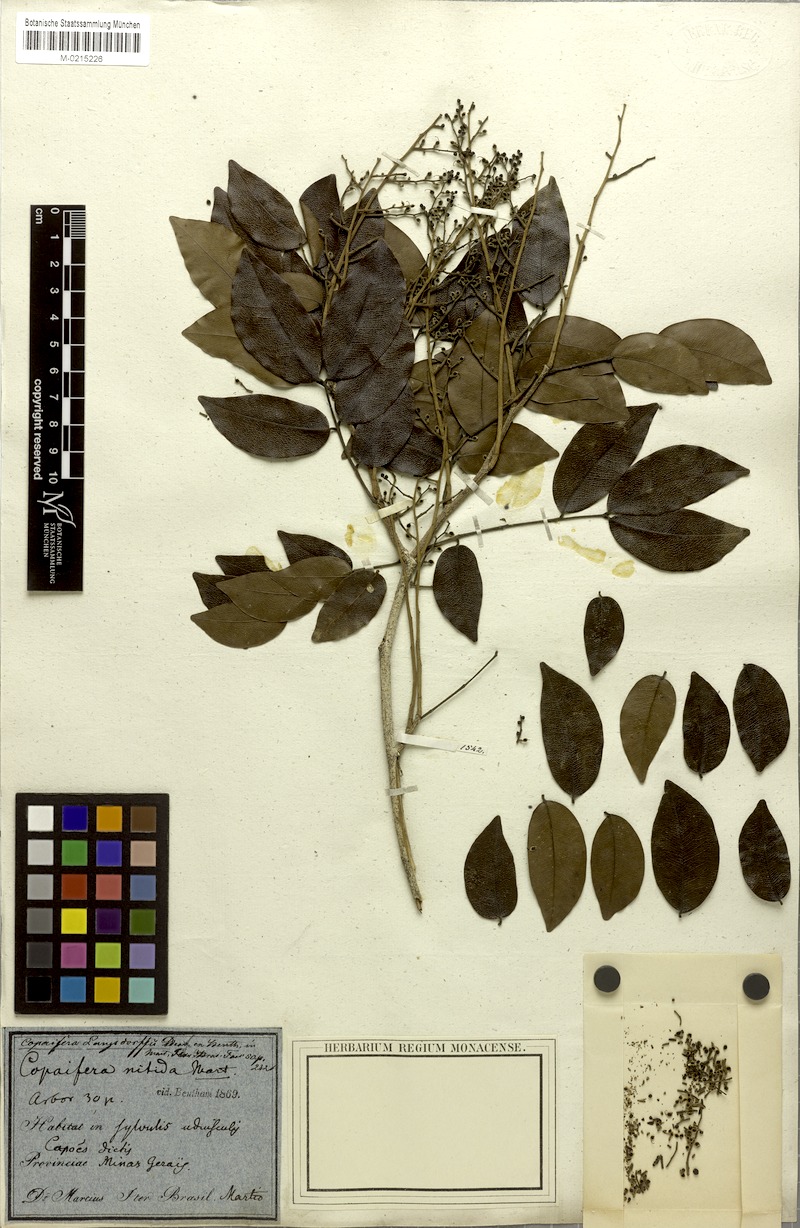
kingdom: Plantae
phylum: Tracheophyta
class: Magnoliopsida
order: Fabales
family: Fabaceae
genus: Copaifera
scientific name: Copaifera langsdorffii
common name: Brazilian diesel tree
